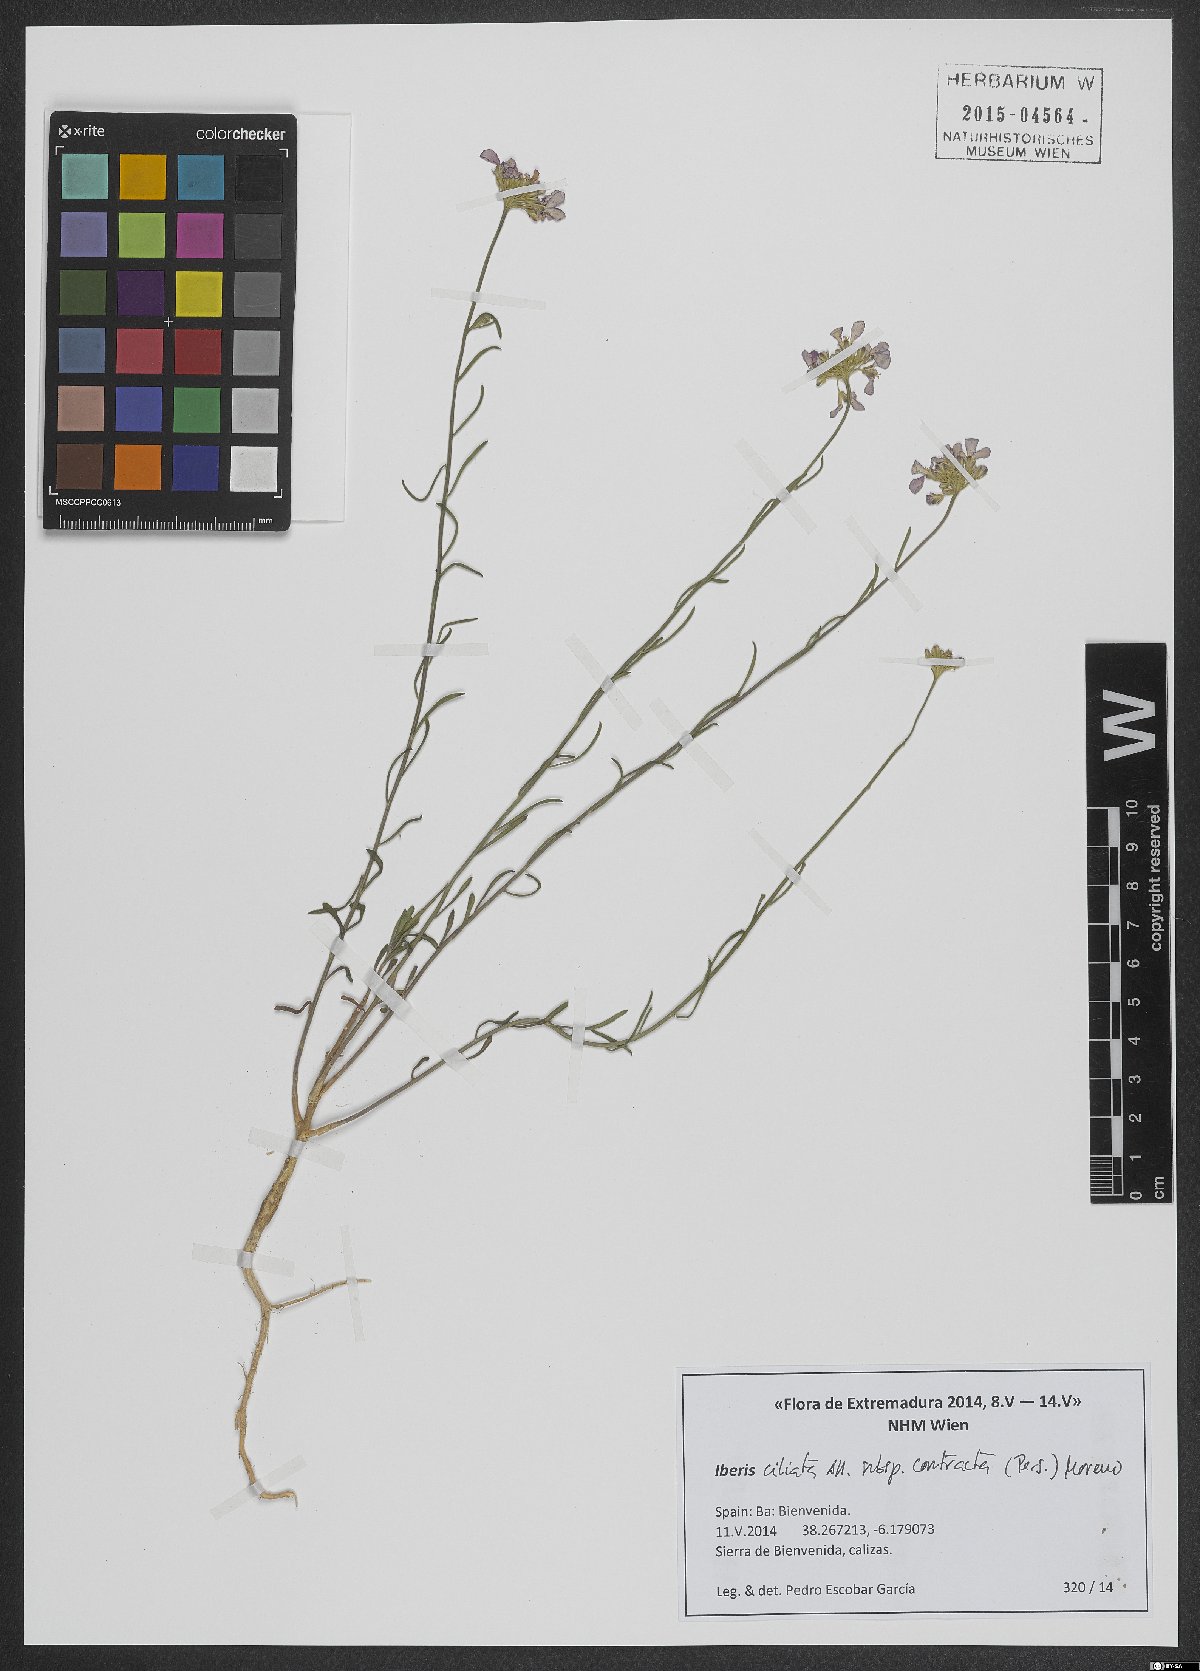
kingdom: Plantae
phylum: Tracheophyta
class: Magnoliopsida
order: Brassicales
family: Brassicaceae
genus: Iberis
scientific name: Iberis contracta
